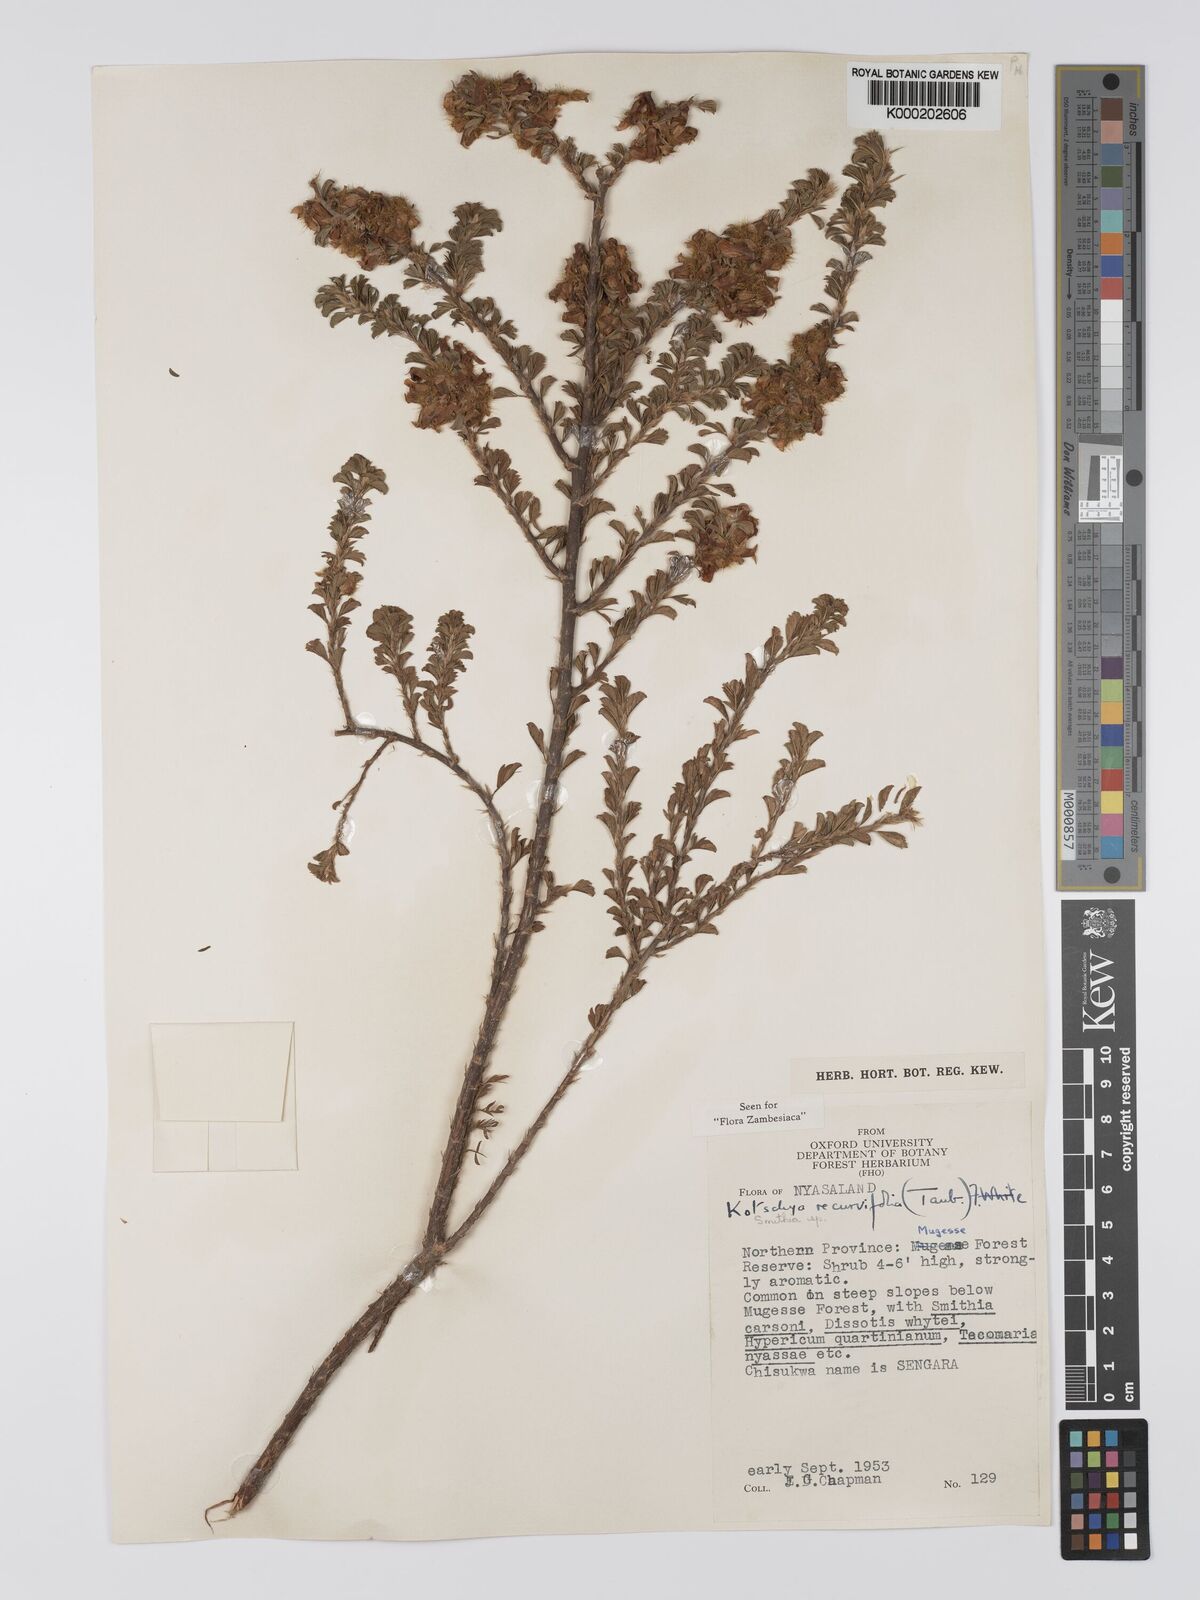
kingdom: Plantae
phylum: Tracheophyta
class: Magnoliopsida
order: Fabales
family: Fabaceae
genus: Kotschya
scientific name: Kotschya recurvifolia
